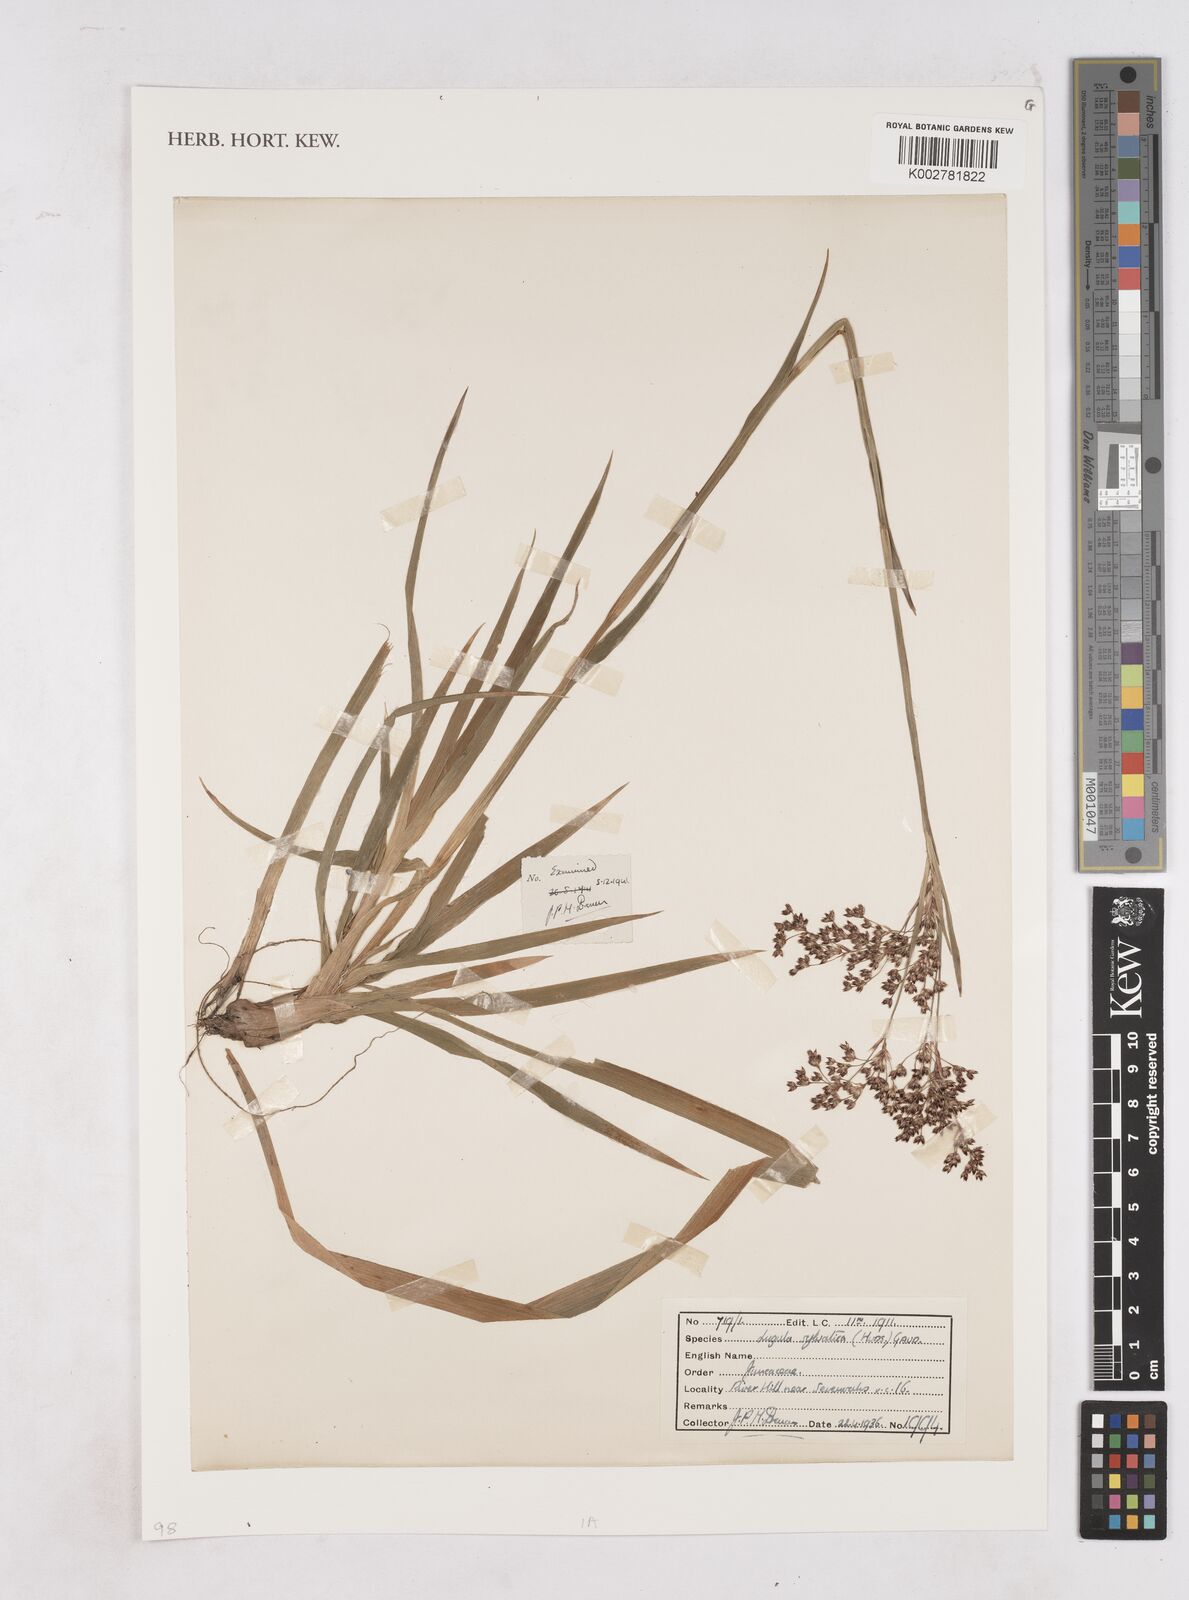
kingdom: Plantae
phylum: Tracheophyta
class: Liliopsida
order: Poales
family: Juncaceae
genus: Luzula
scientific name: Luzula sylvatica
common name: Great wood-rush
